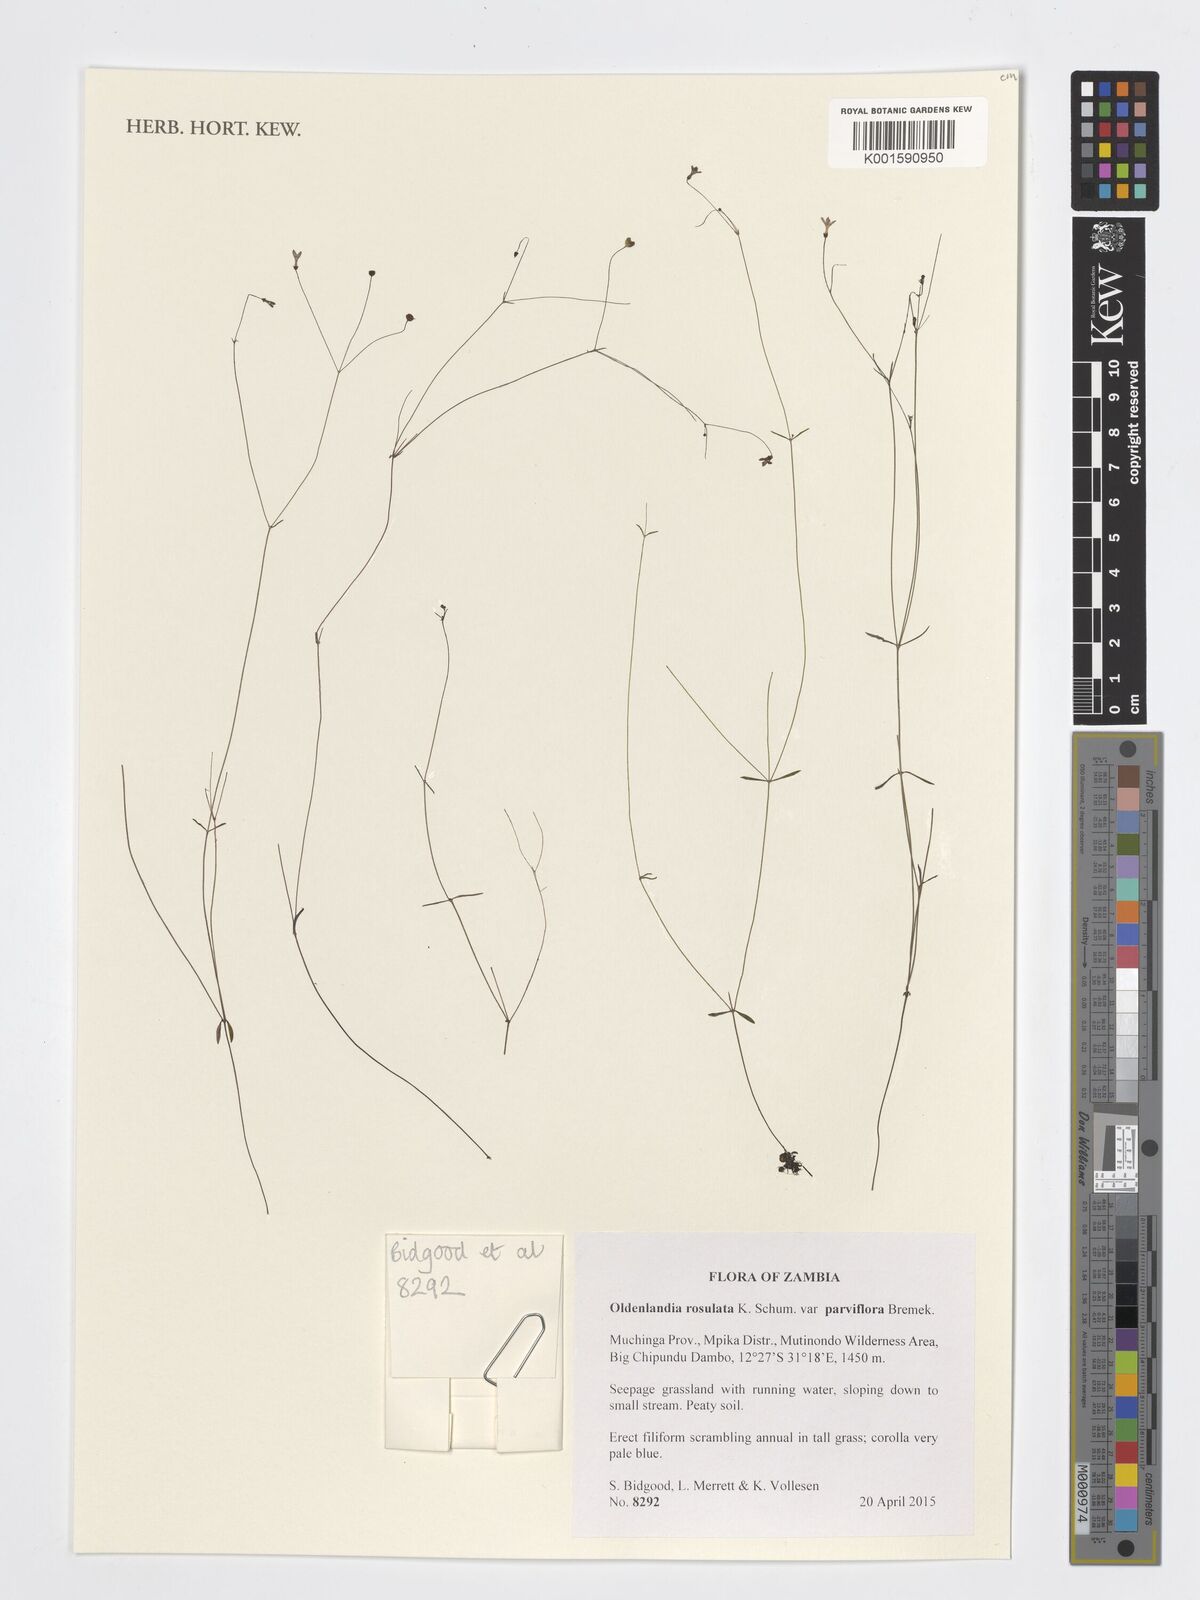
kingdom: Plantae
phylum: Tracheophyta
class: Magnoliopsida
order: Gentianales
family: Rubiaceae
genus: Oldenlandia
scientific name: Oldenlandia rosulata
